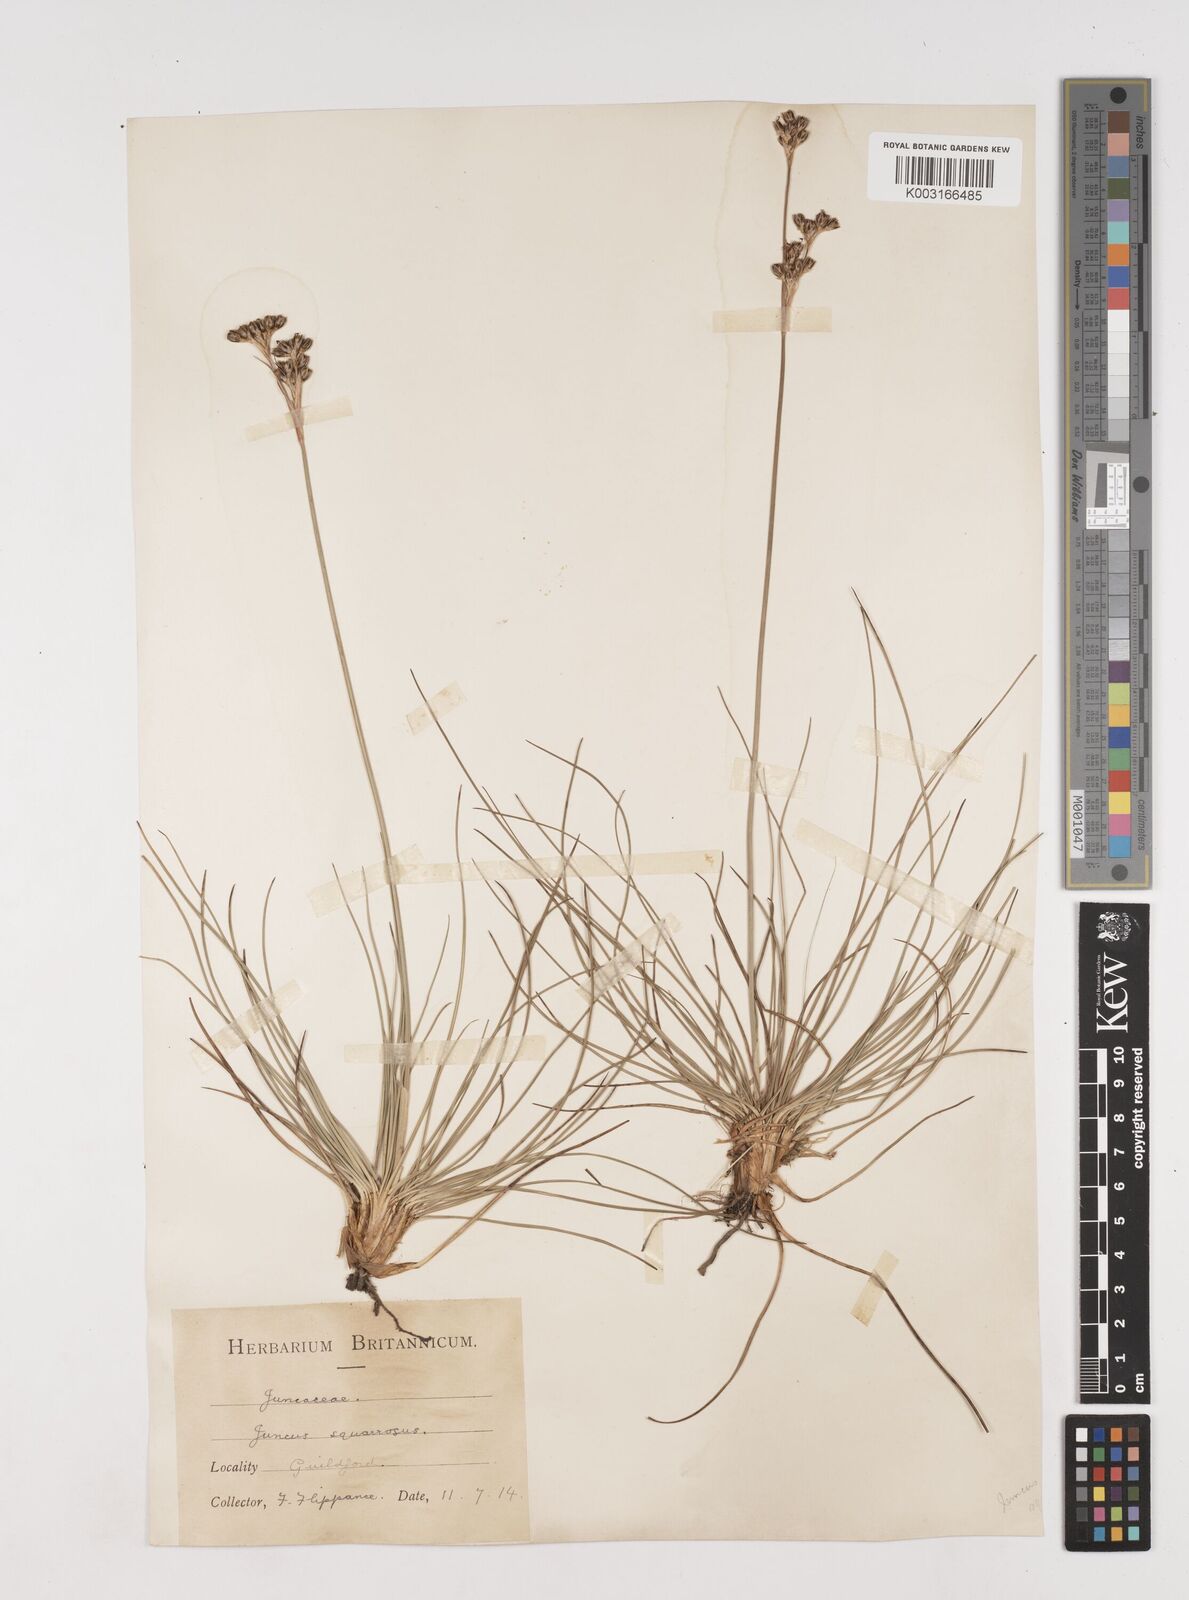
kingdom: Plantae
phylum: Tracheophyta
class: Liliopsida
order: Poales
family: Juncaceae
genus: Juncus
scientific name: Juncus squarrosus
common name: Heath rush
